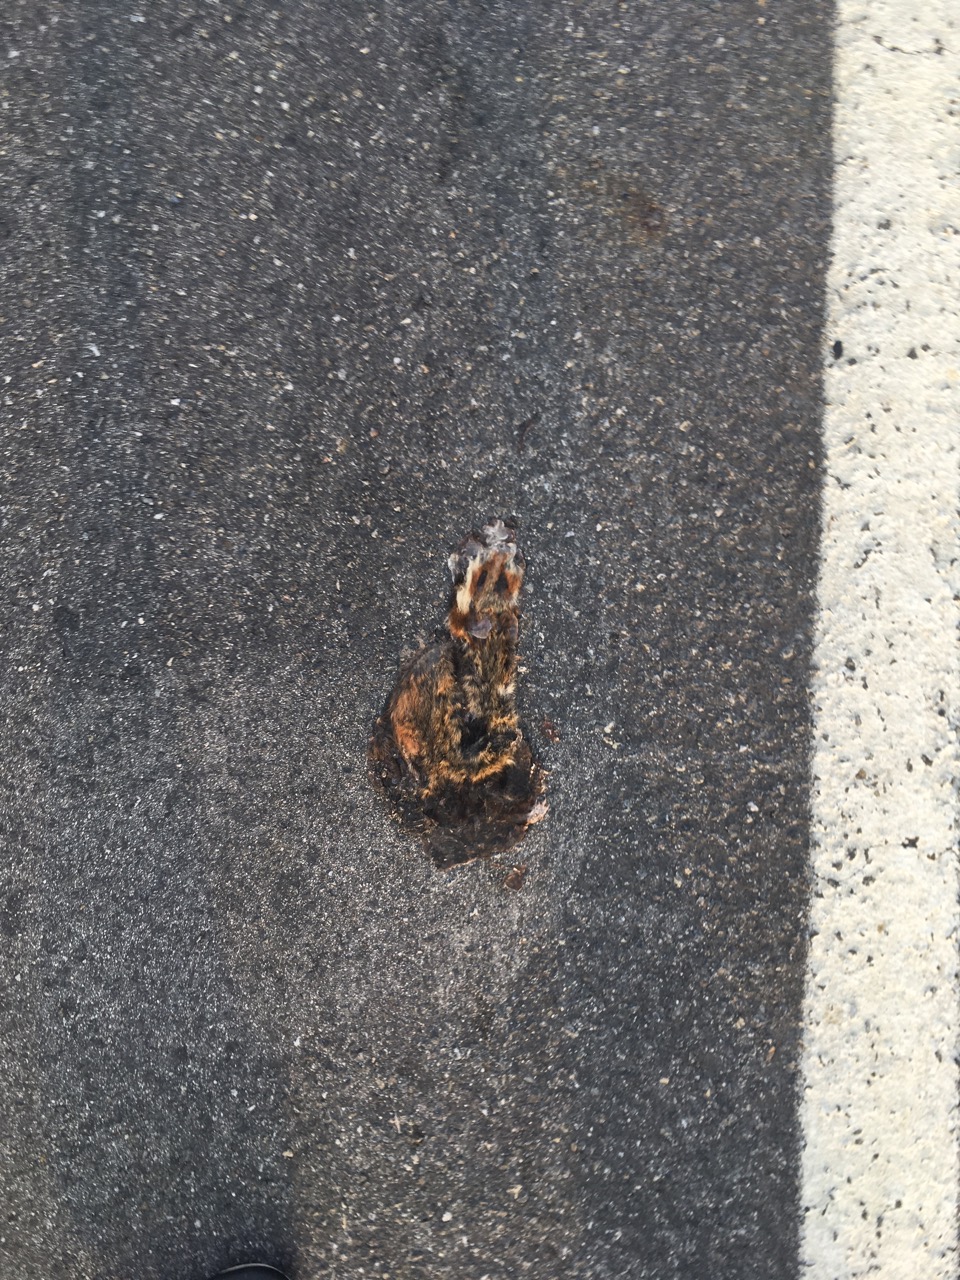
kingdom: Animalia
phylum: Chordata
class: Mammalia
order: Rodentia
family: Cricetidae
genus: Cricetus
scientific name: Cricetus cricetus
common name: Common hamster
